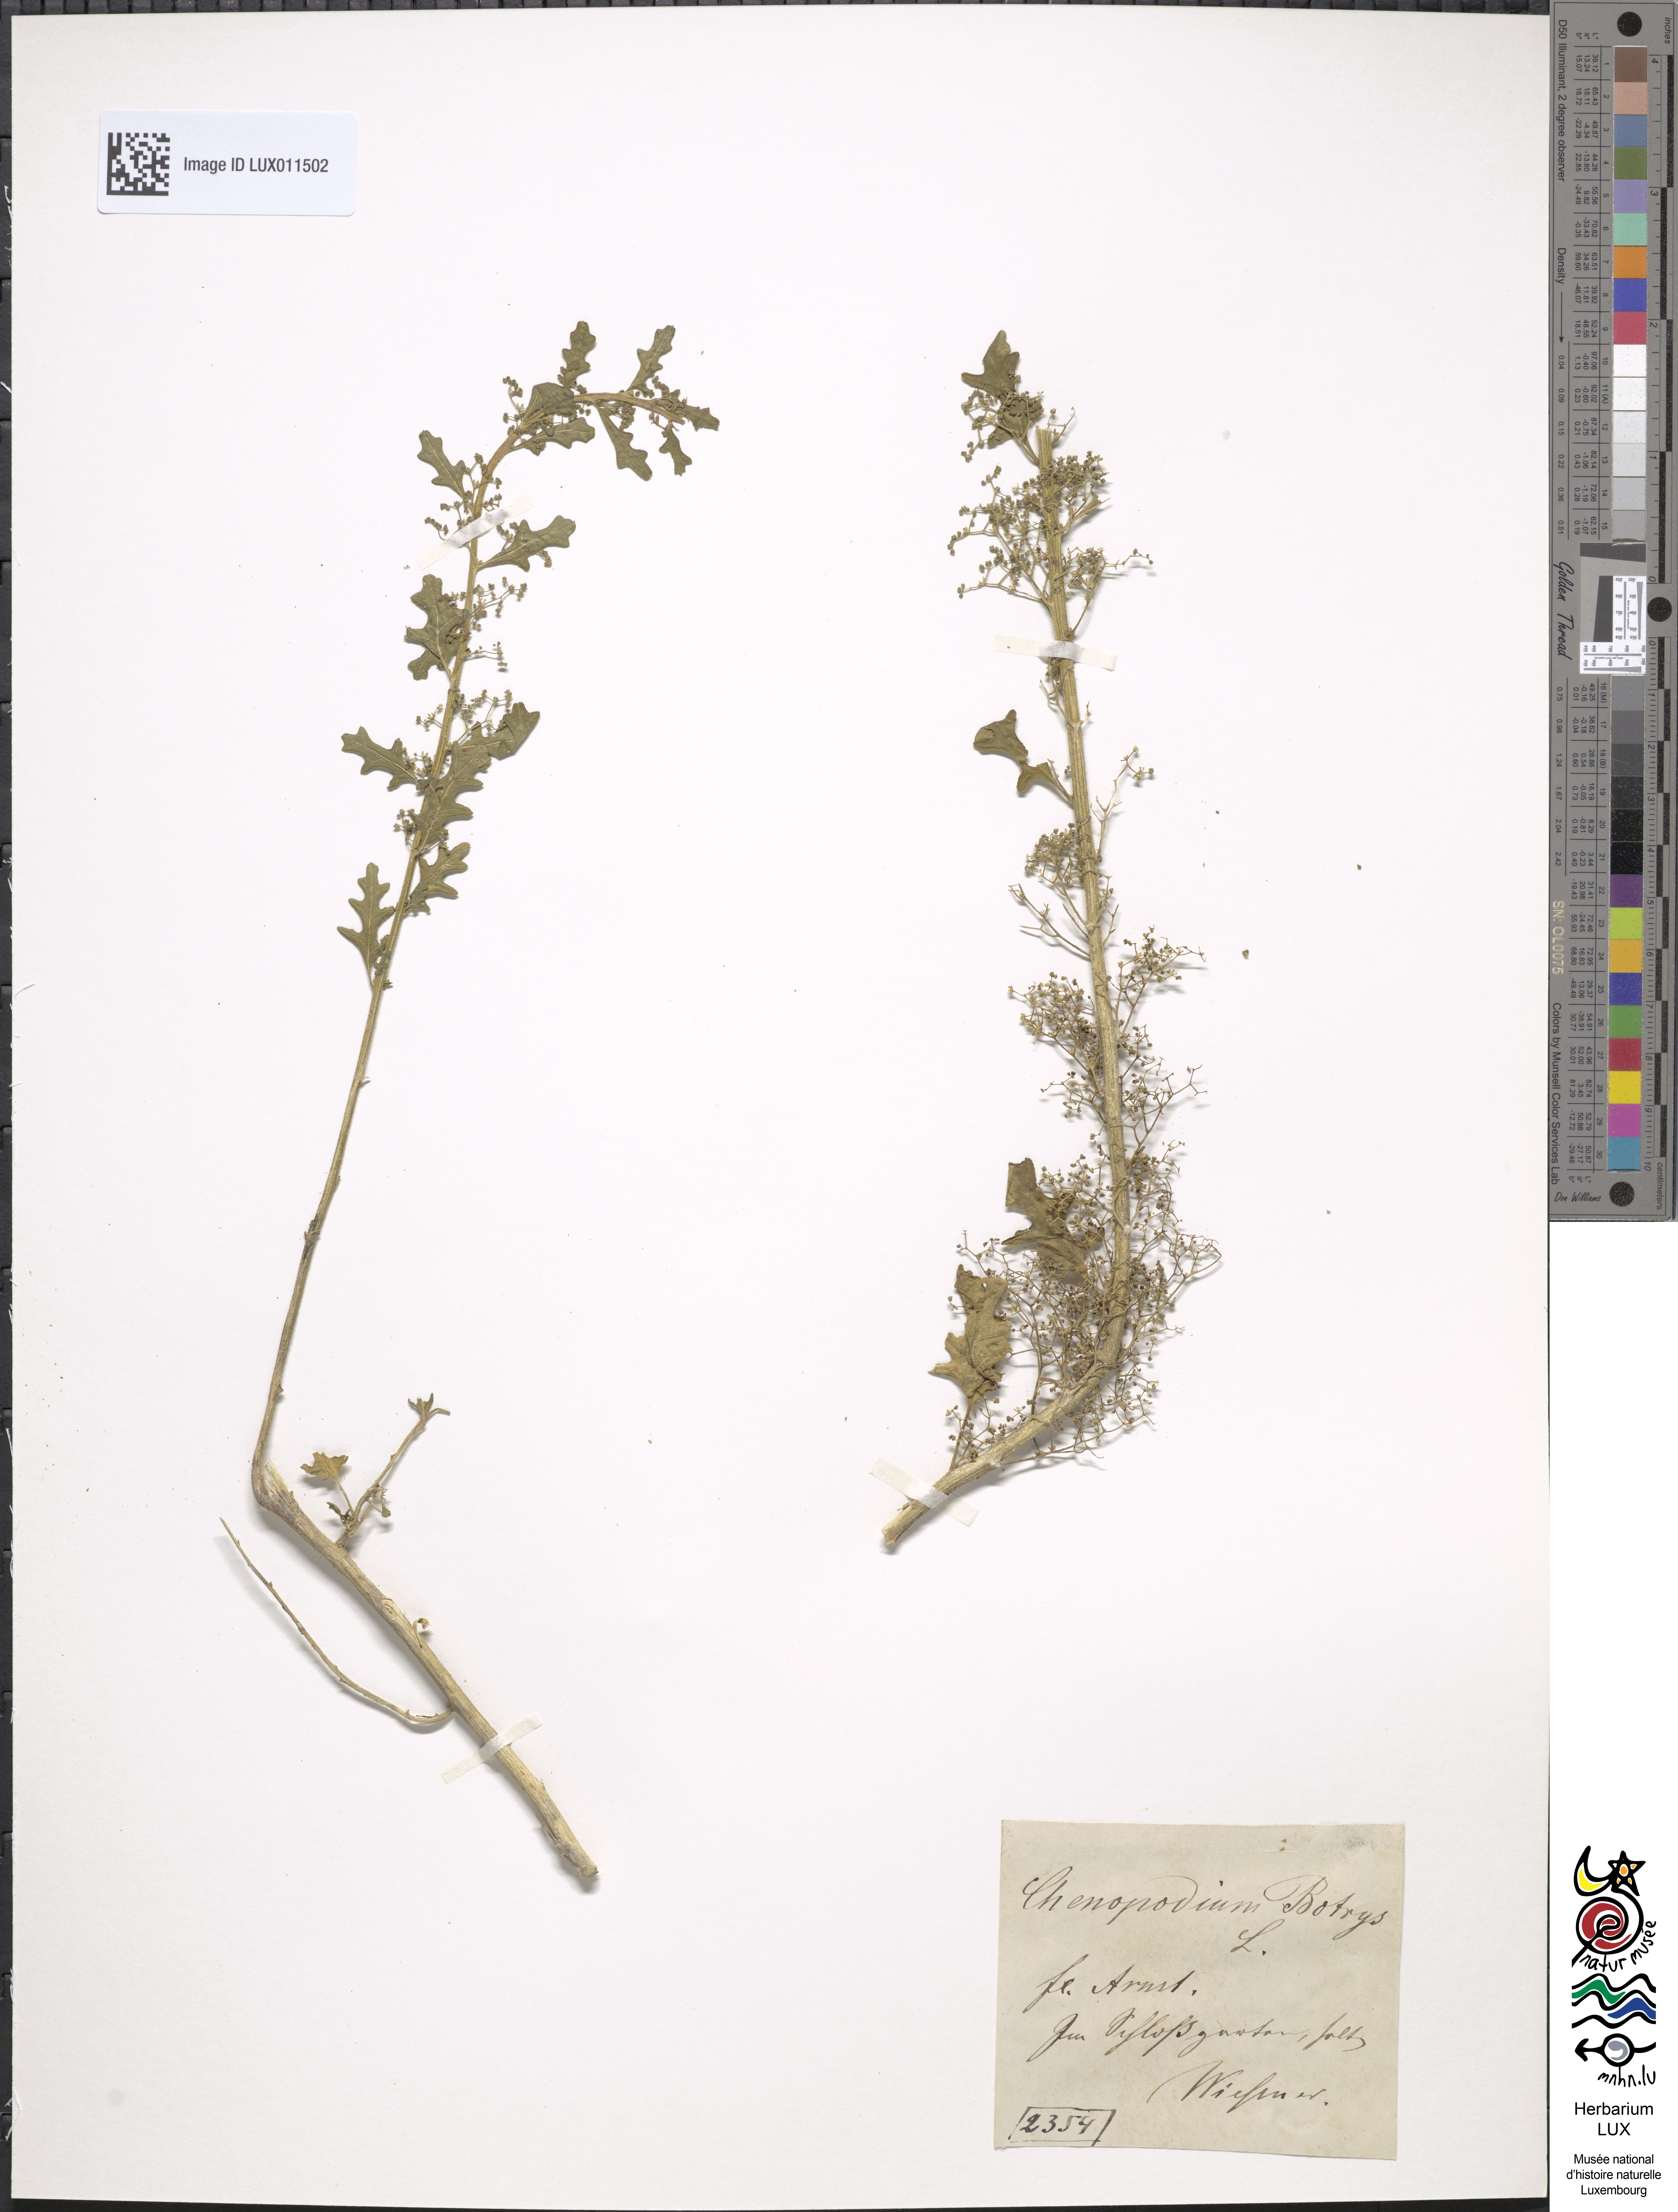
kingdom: Plantae
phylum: Tracheophyta
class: Magnoliopsida
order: Caryophyllales
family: Amaranthaceae
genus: Dysphania
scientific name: Dysphania botrys
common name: Feather-geranium
